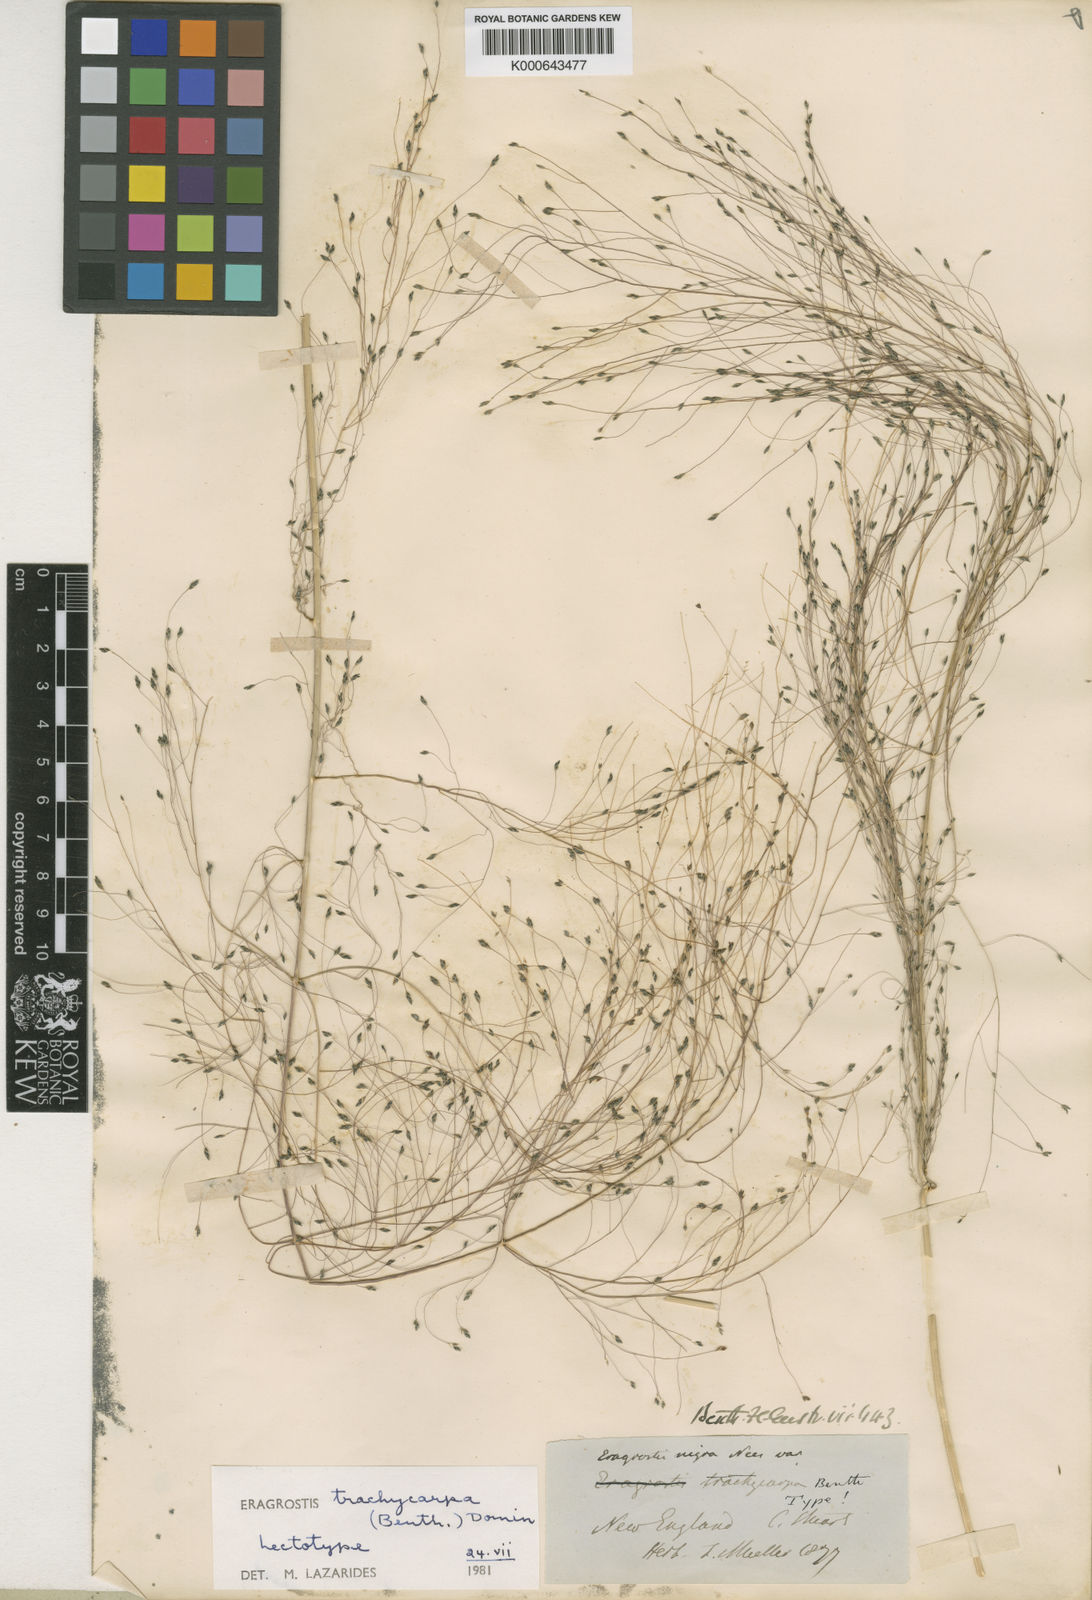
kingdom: Plantae
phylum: Tracheophyta
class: Liliopsida
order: Poales
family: Poaceae
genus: Eragrostis
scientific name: Eragrostis trachycarpa
